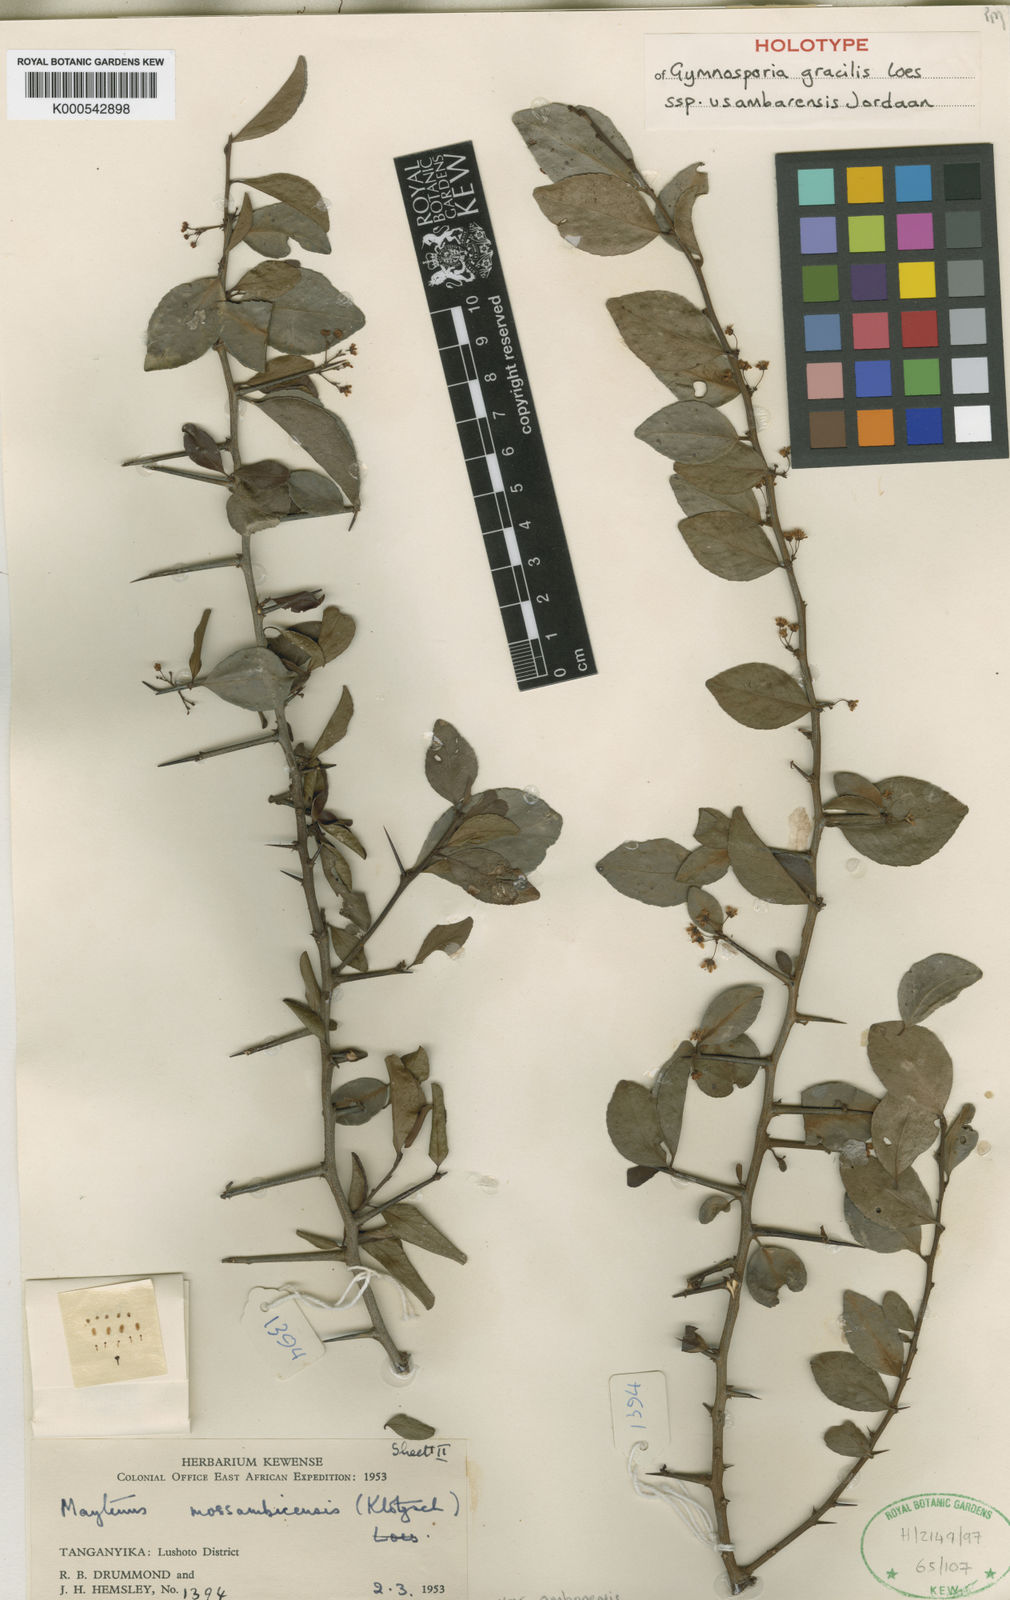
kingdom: Plantae
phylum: Tracheophyta
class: Magnoliopsida
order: Celastrales
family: Celastraceae
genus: Gymnosporia
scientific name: Gymnosporia mossambicensis
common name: Black forest spike-thorn
